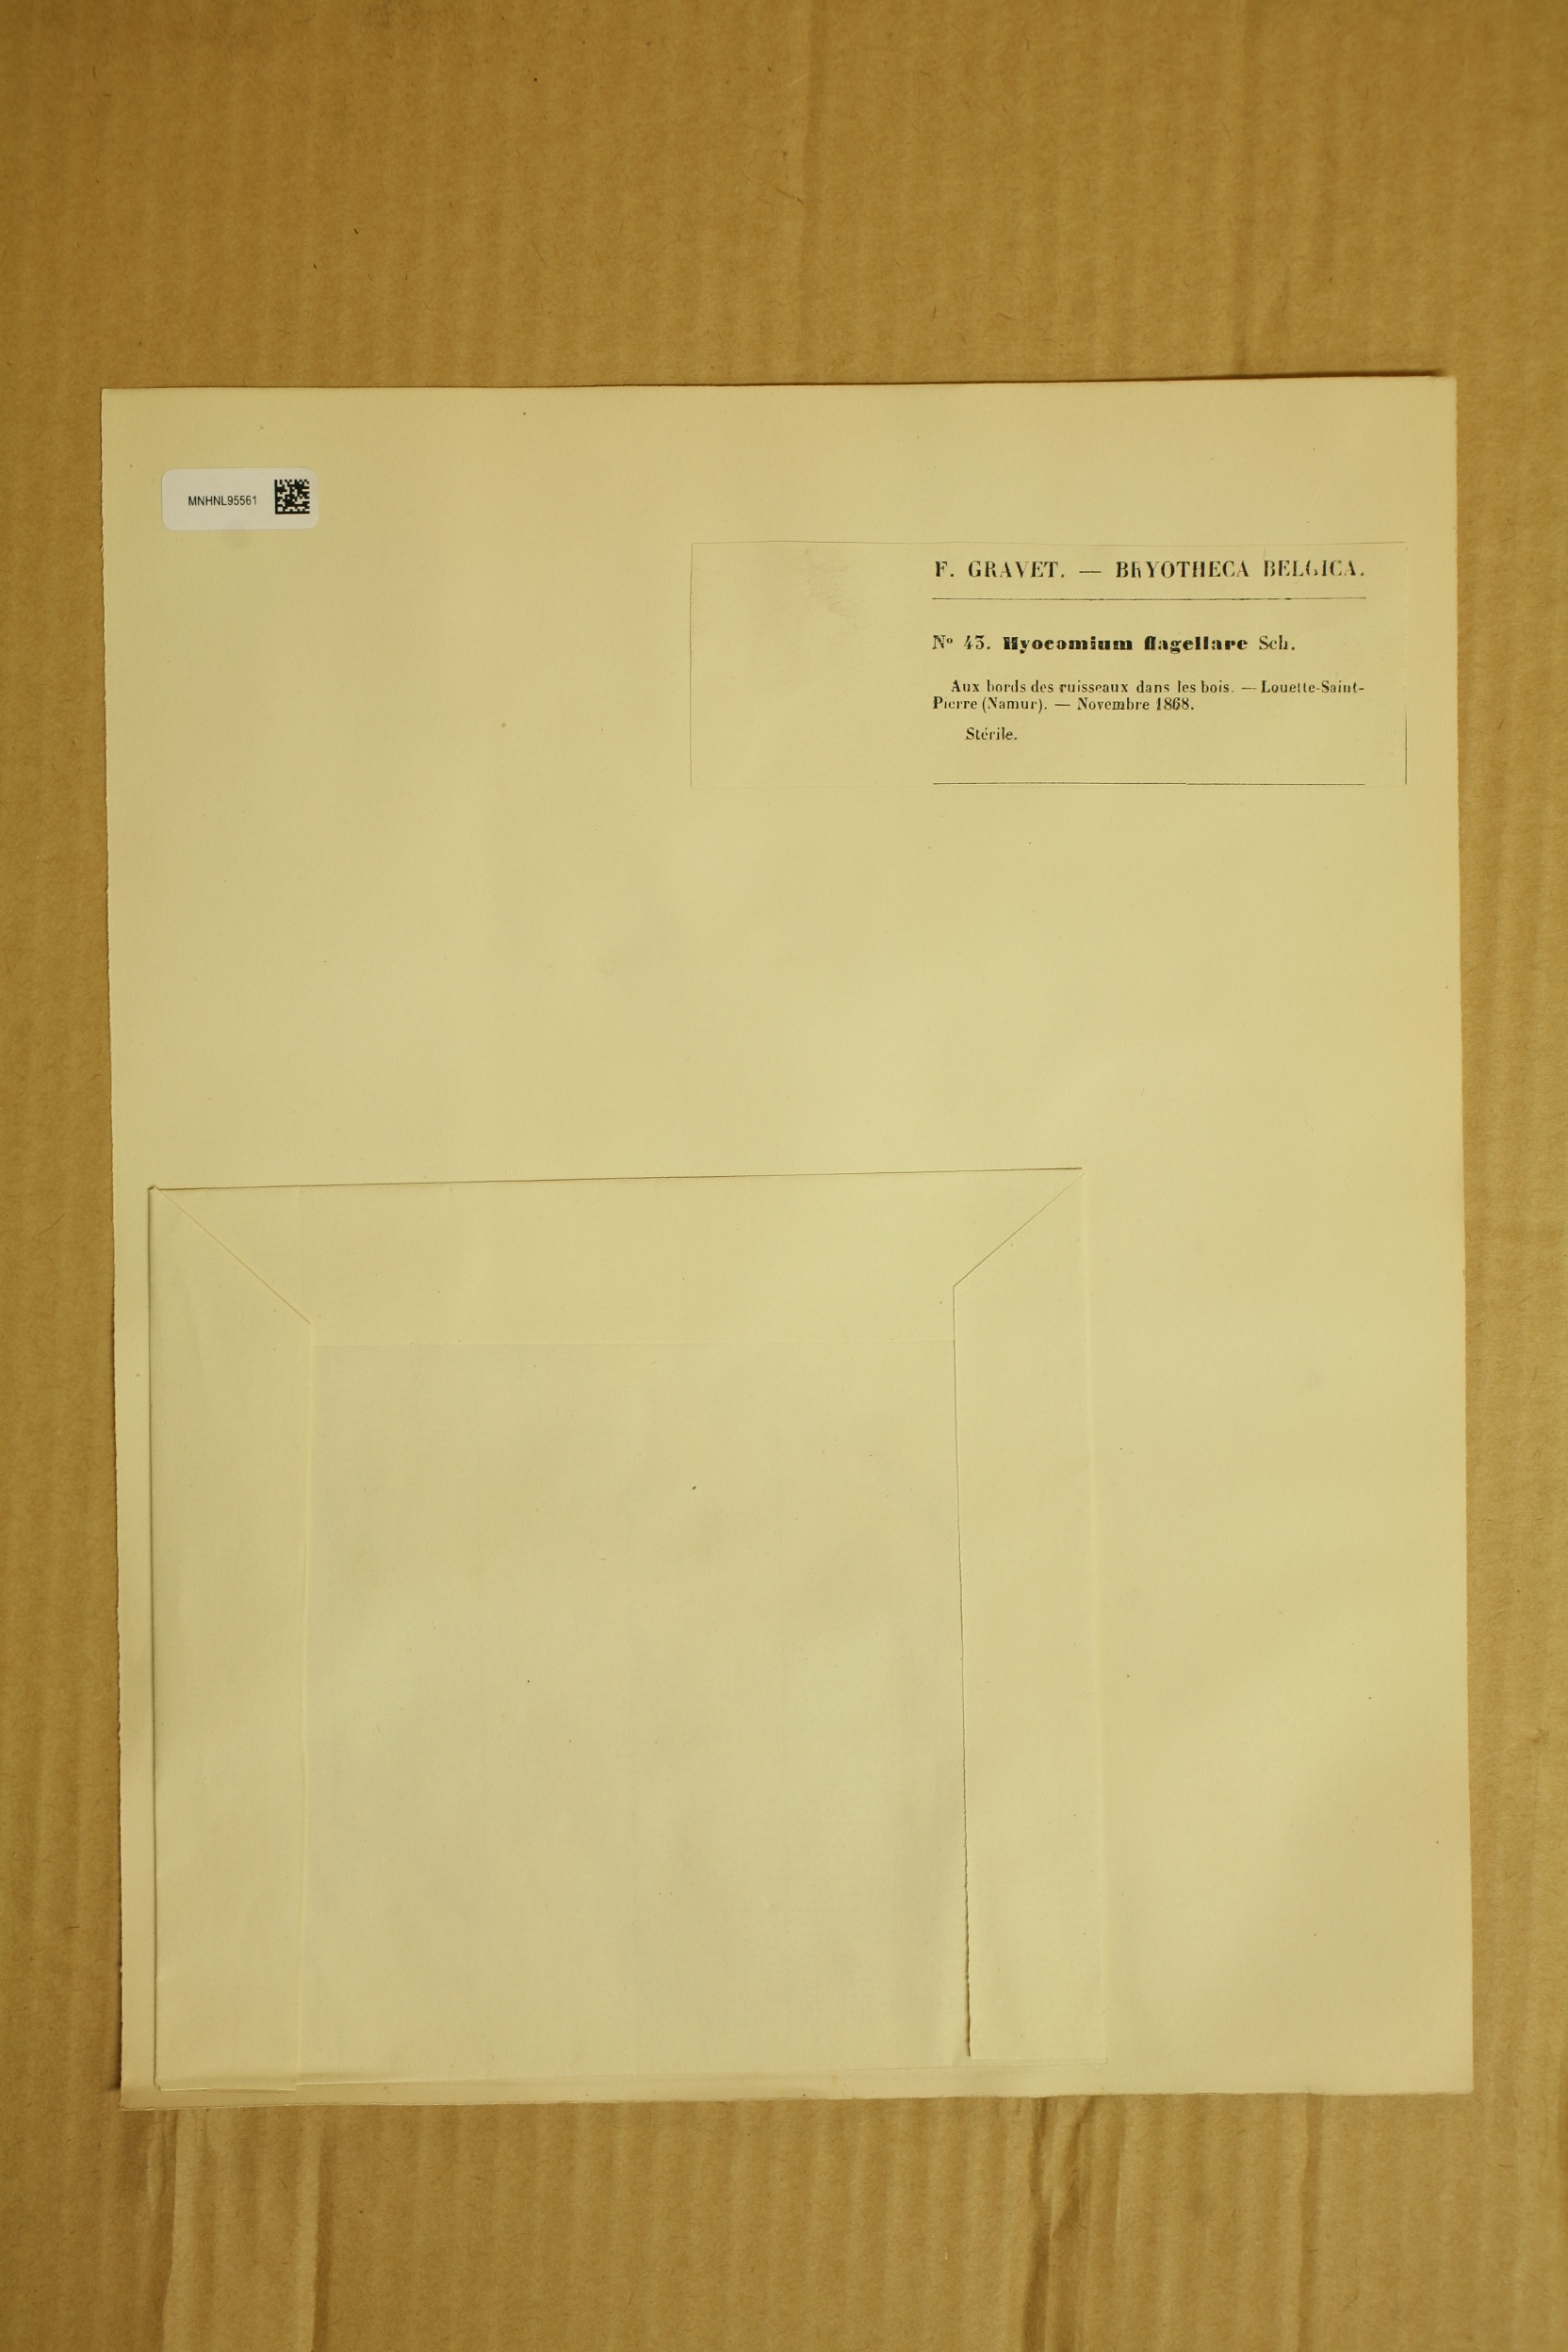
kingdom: Plantae
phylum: Bryophyta
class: Bryopsida
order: Hypnales
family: Myuriaceae
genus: Hyocomium
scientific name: Hyocomium armoricum
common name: Flagellate feather-moss
